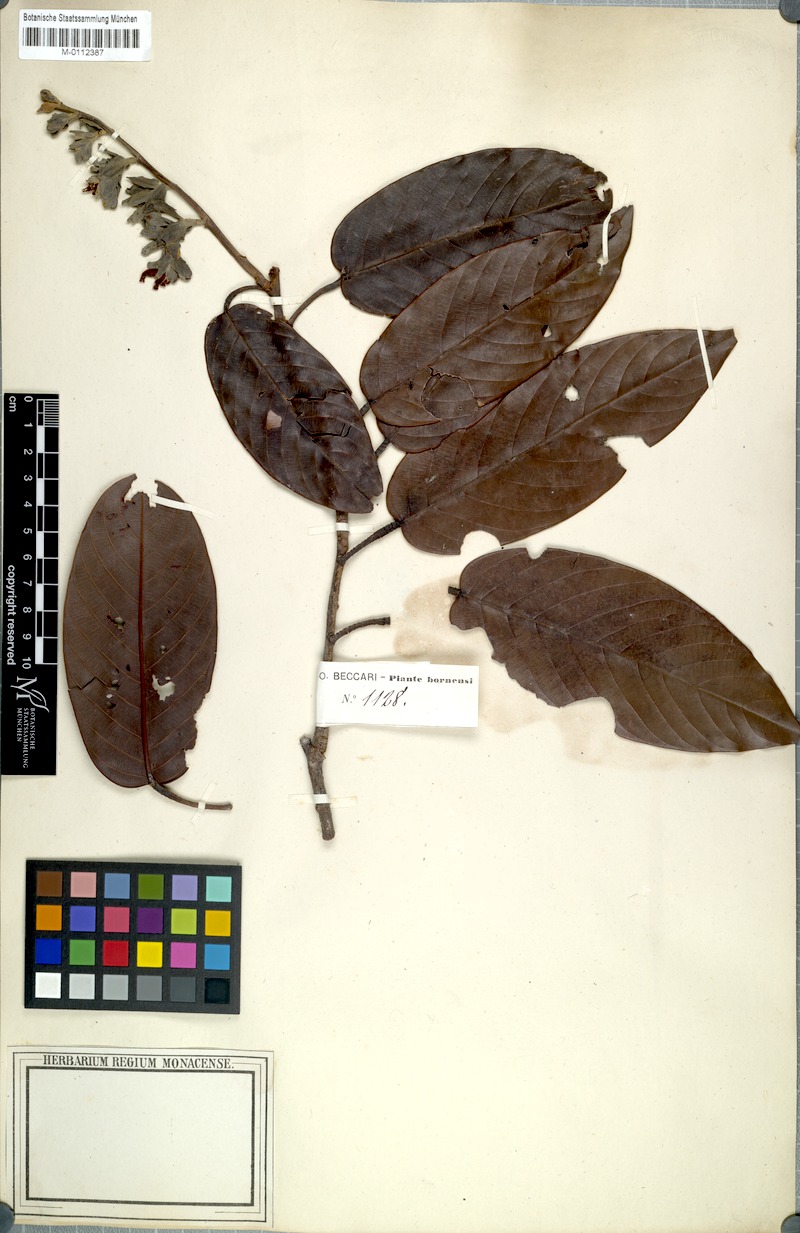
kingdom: Plantae
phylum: Tracheophyta
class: Magnoliopsida
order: Malvales
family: Dipterocarpaceae
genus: Shorea
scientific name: Shorea
